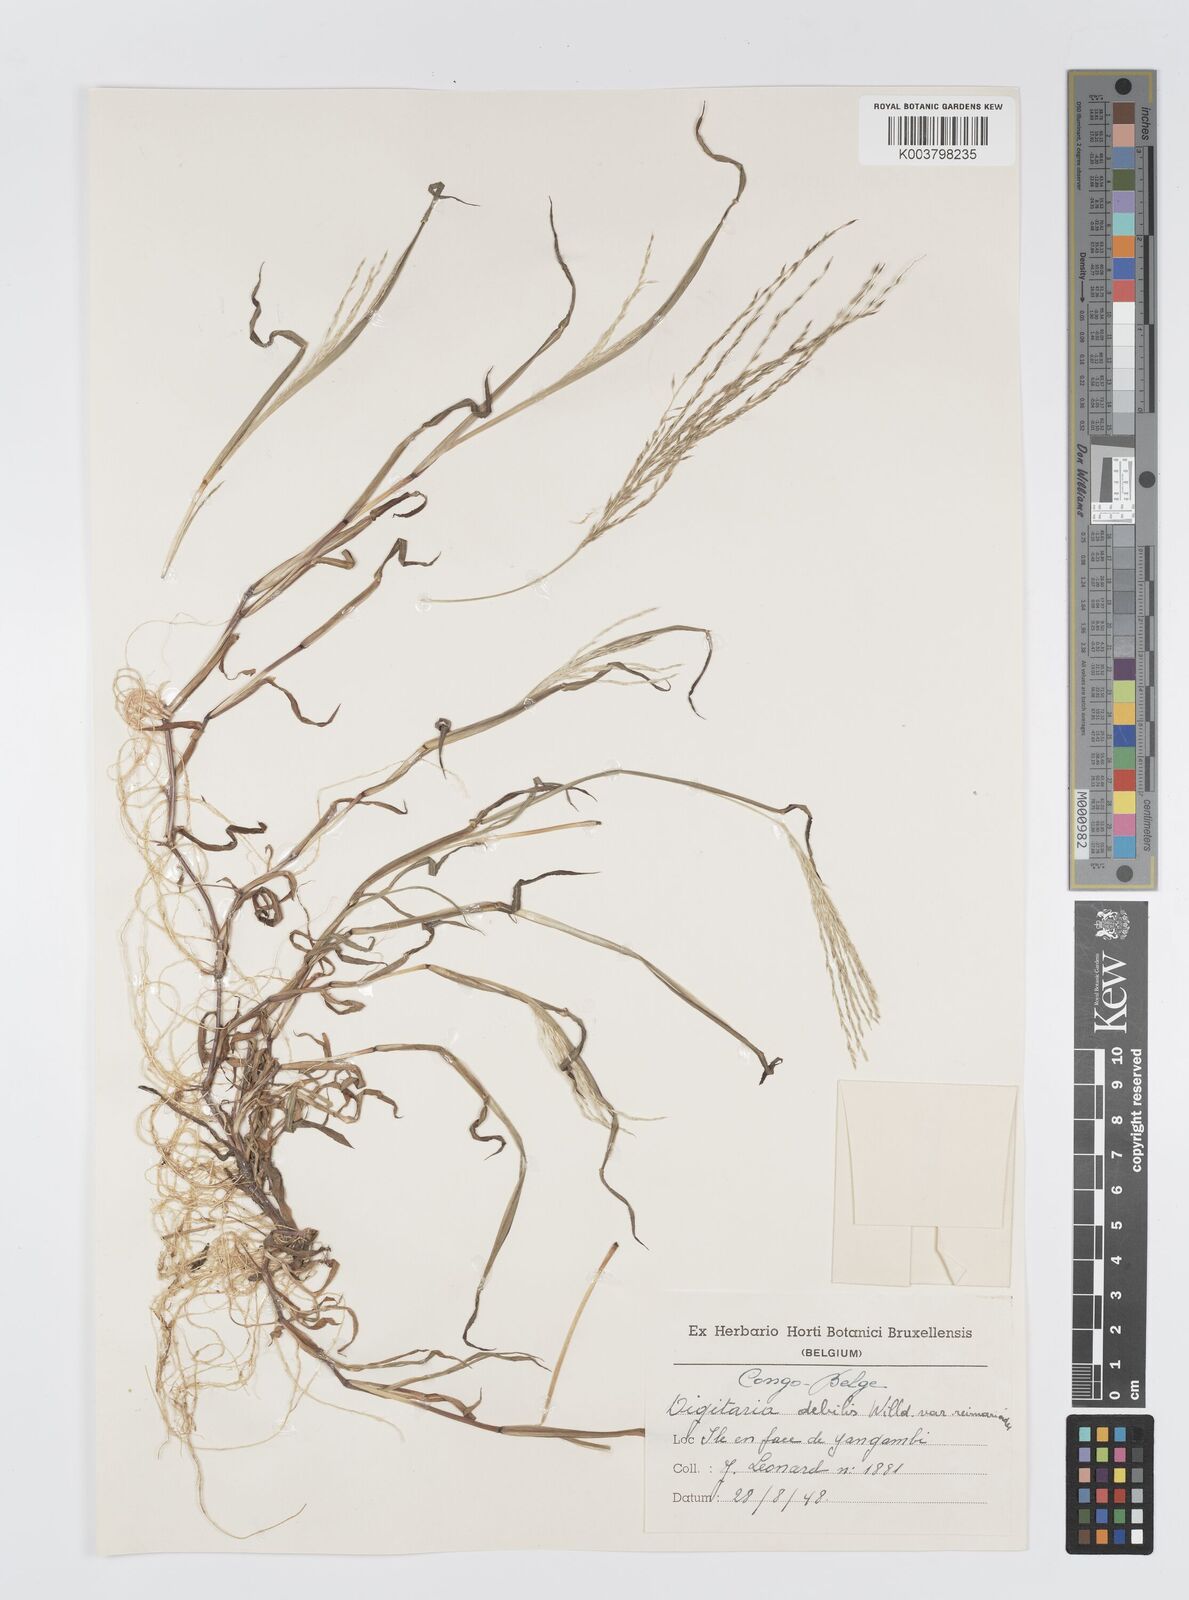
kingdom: Plantae
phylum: Tracheophyta
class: Liliopsida
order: Poales
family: Poaceae
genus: Digitaria
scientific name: Digitaria debilis
